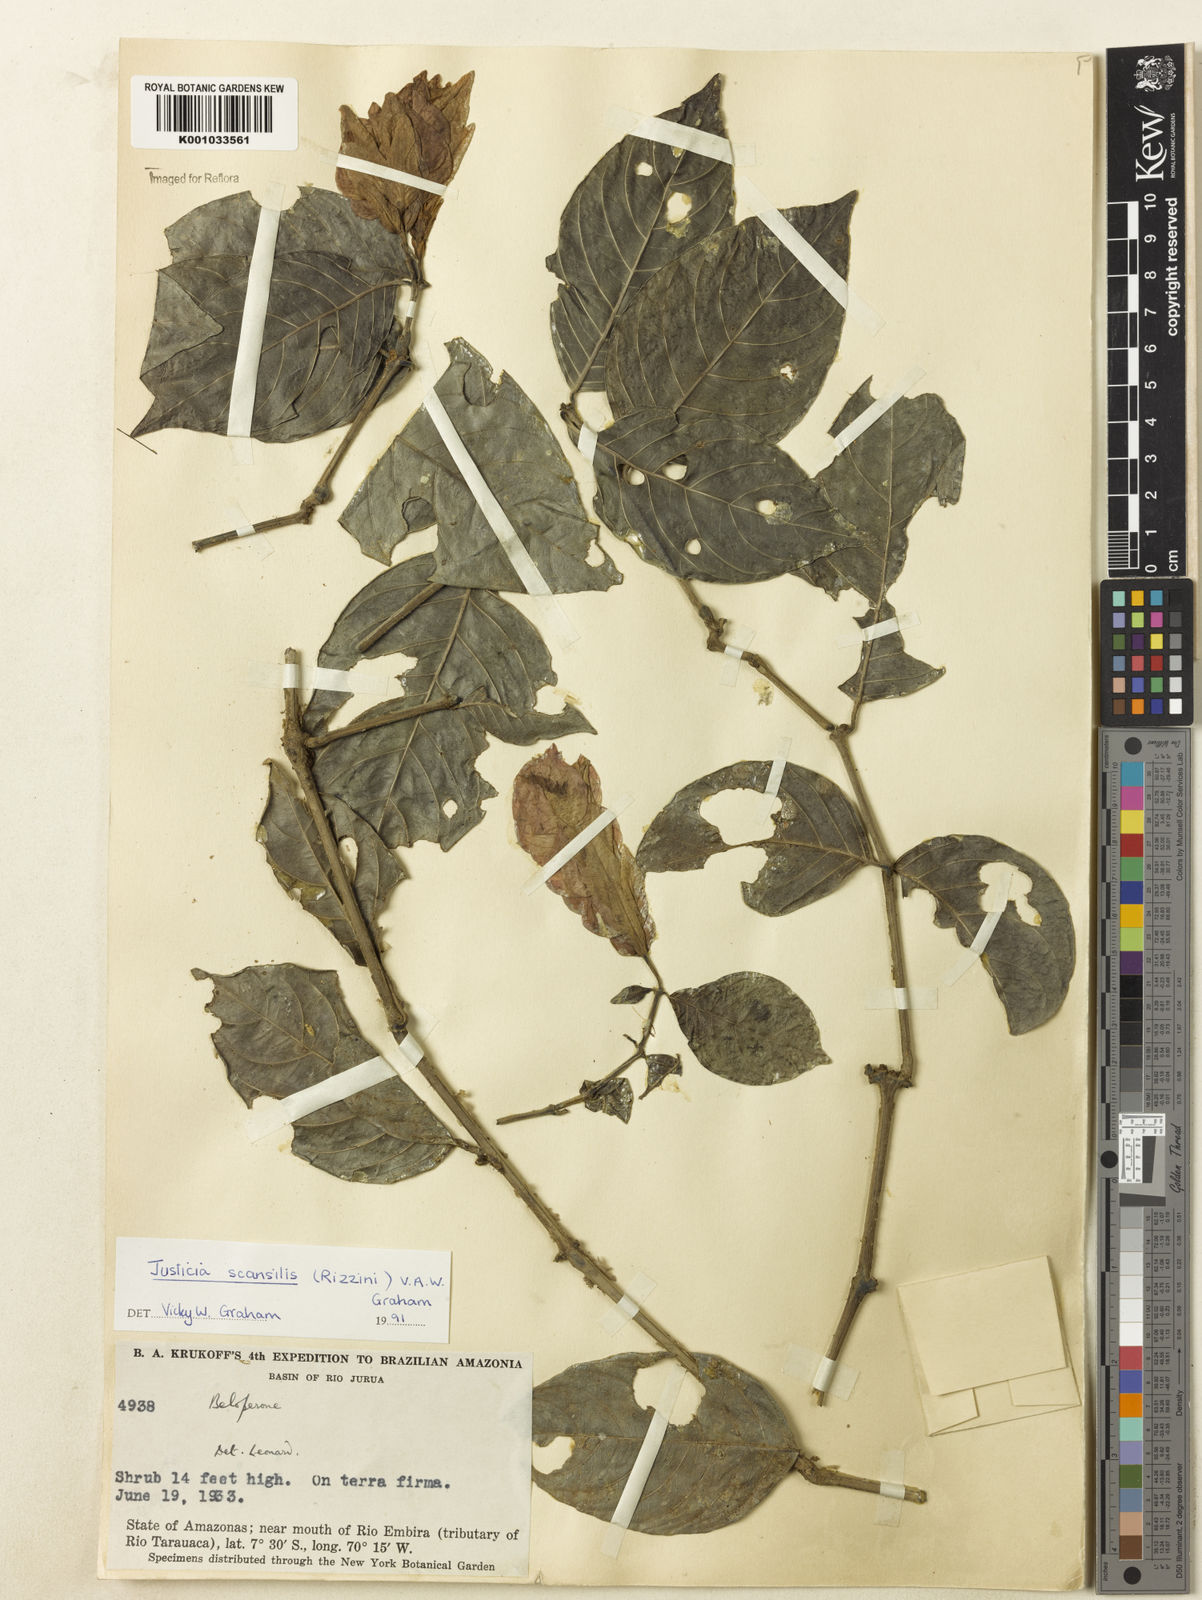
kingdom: Plantae
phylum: Tracheophyta
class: Magnoliopsida
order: Lamiales
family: Acanthaceae
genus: Justicia
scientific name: Justicia scansilis
